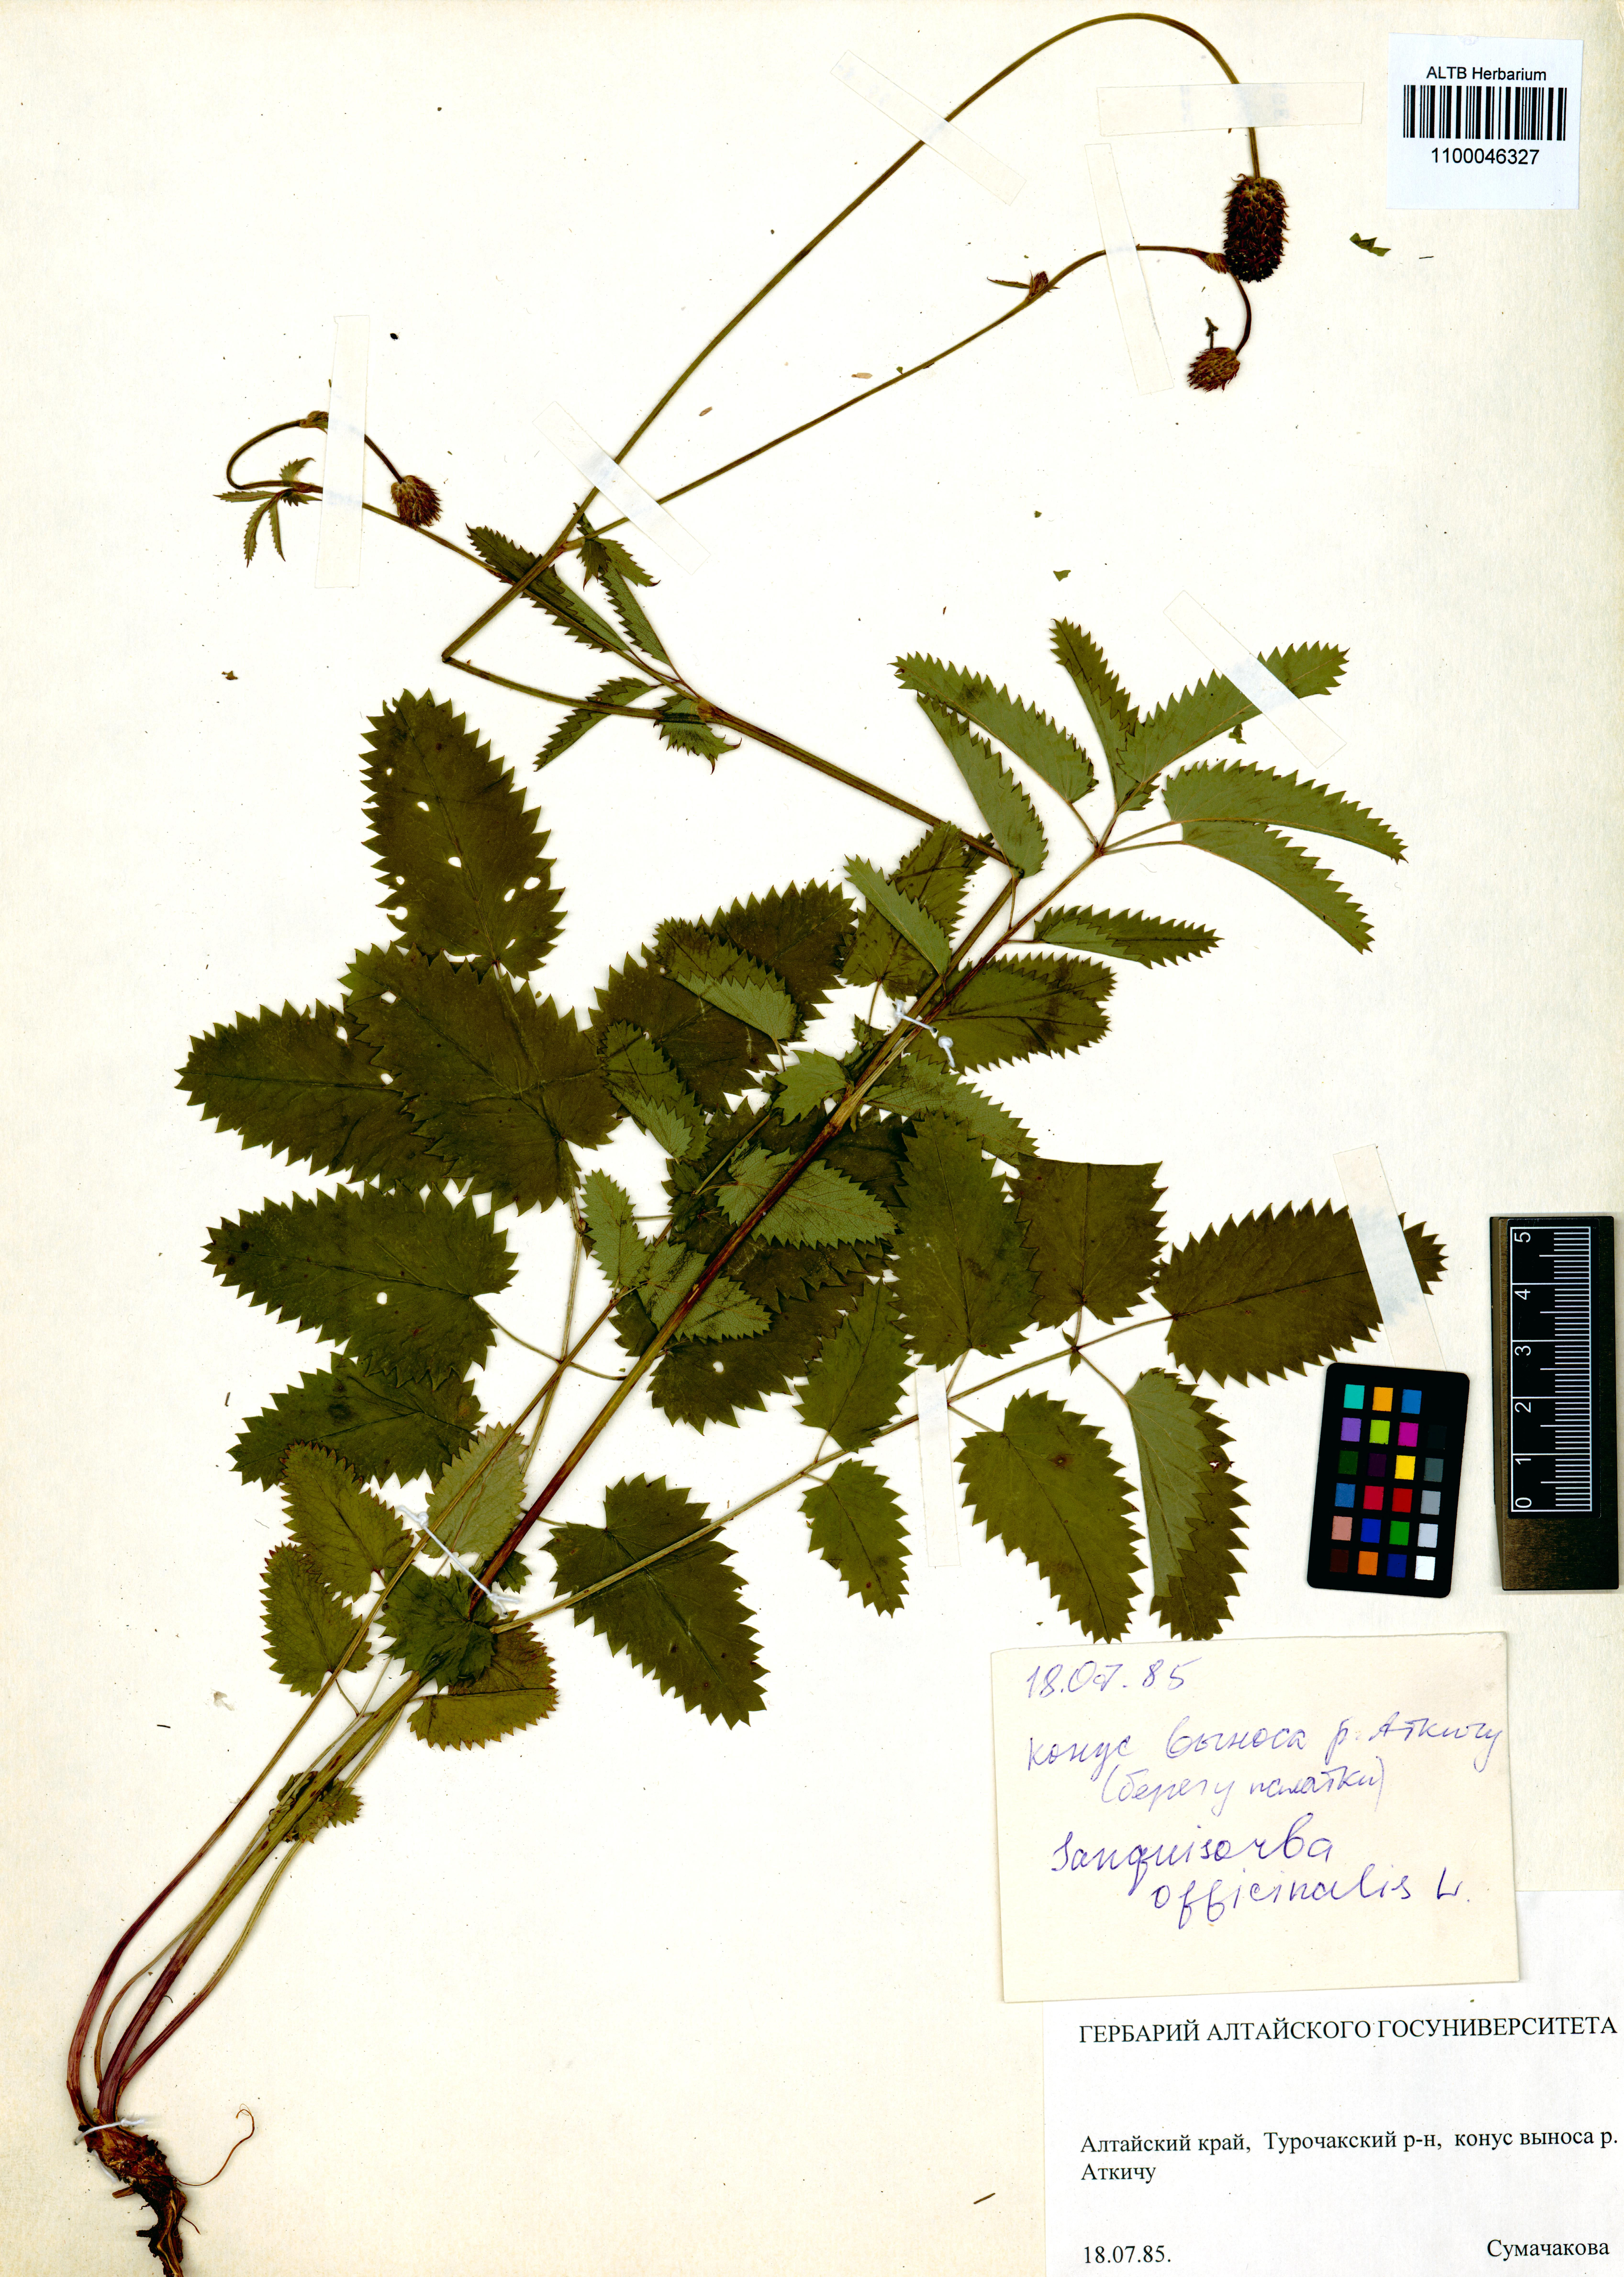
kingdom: Plantae
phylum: Tracheophyta
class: Magnoliopsida
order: Rosales
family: Rosaceae
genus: Sanguisorba
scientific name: Sanguisorba officinalis
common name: Great burnet
